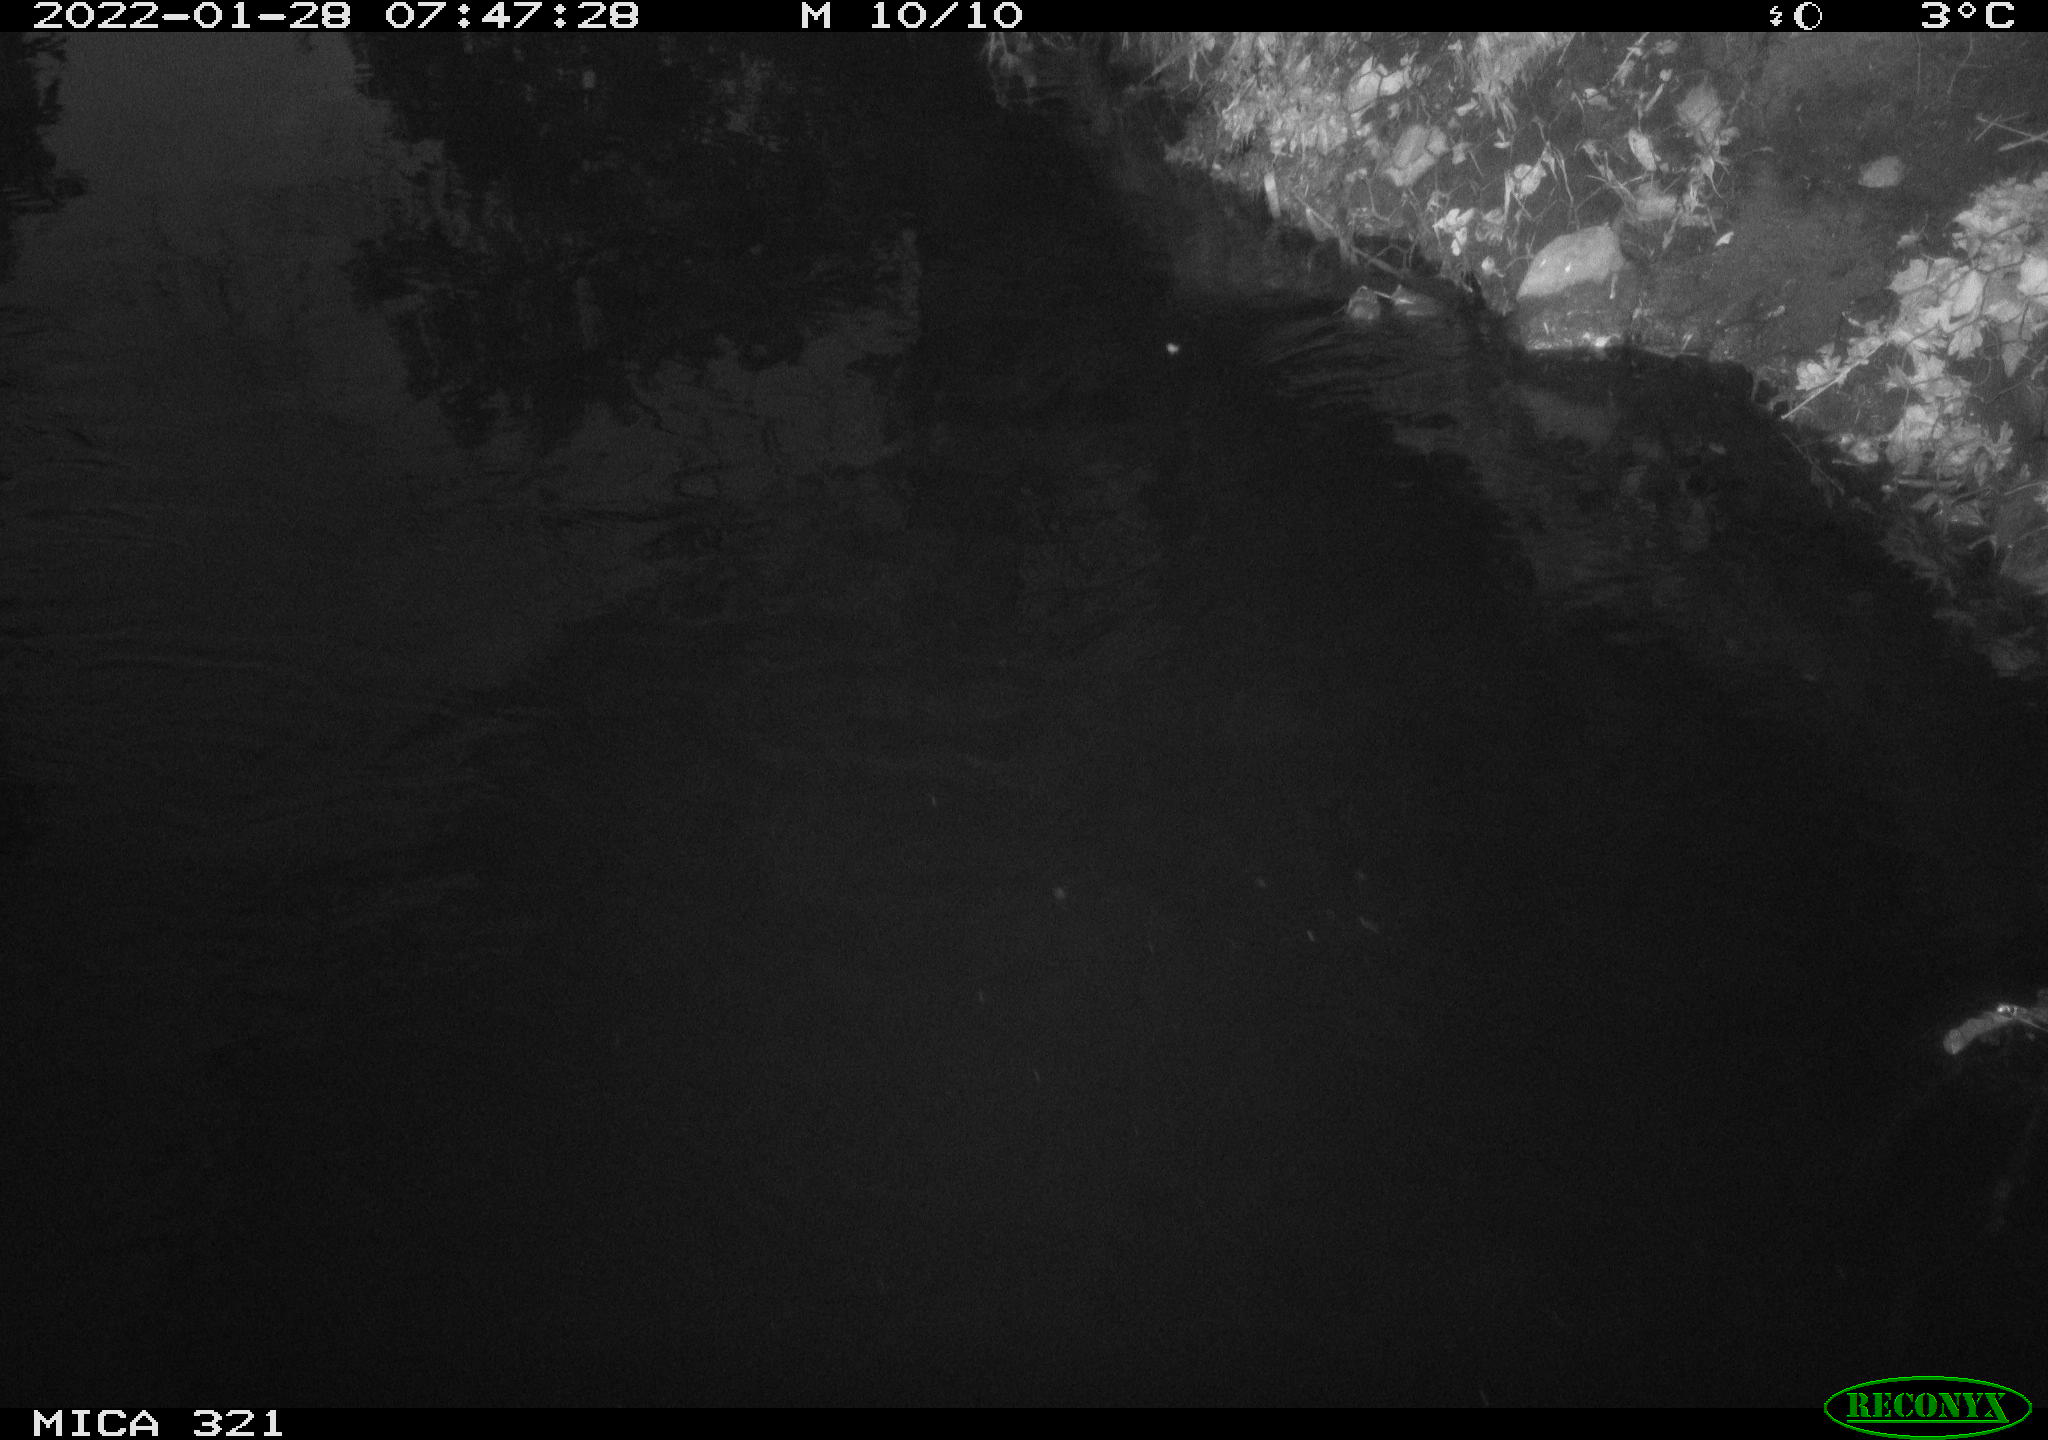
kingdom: Animalia
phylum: Chordata
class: Aves
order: Anseriformes
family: Anatidae
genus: Anas
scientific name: Anas
